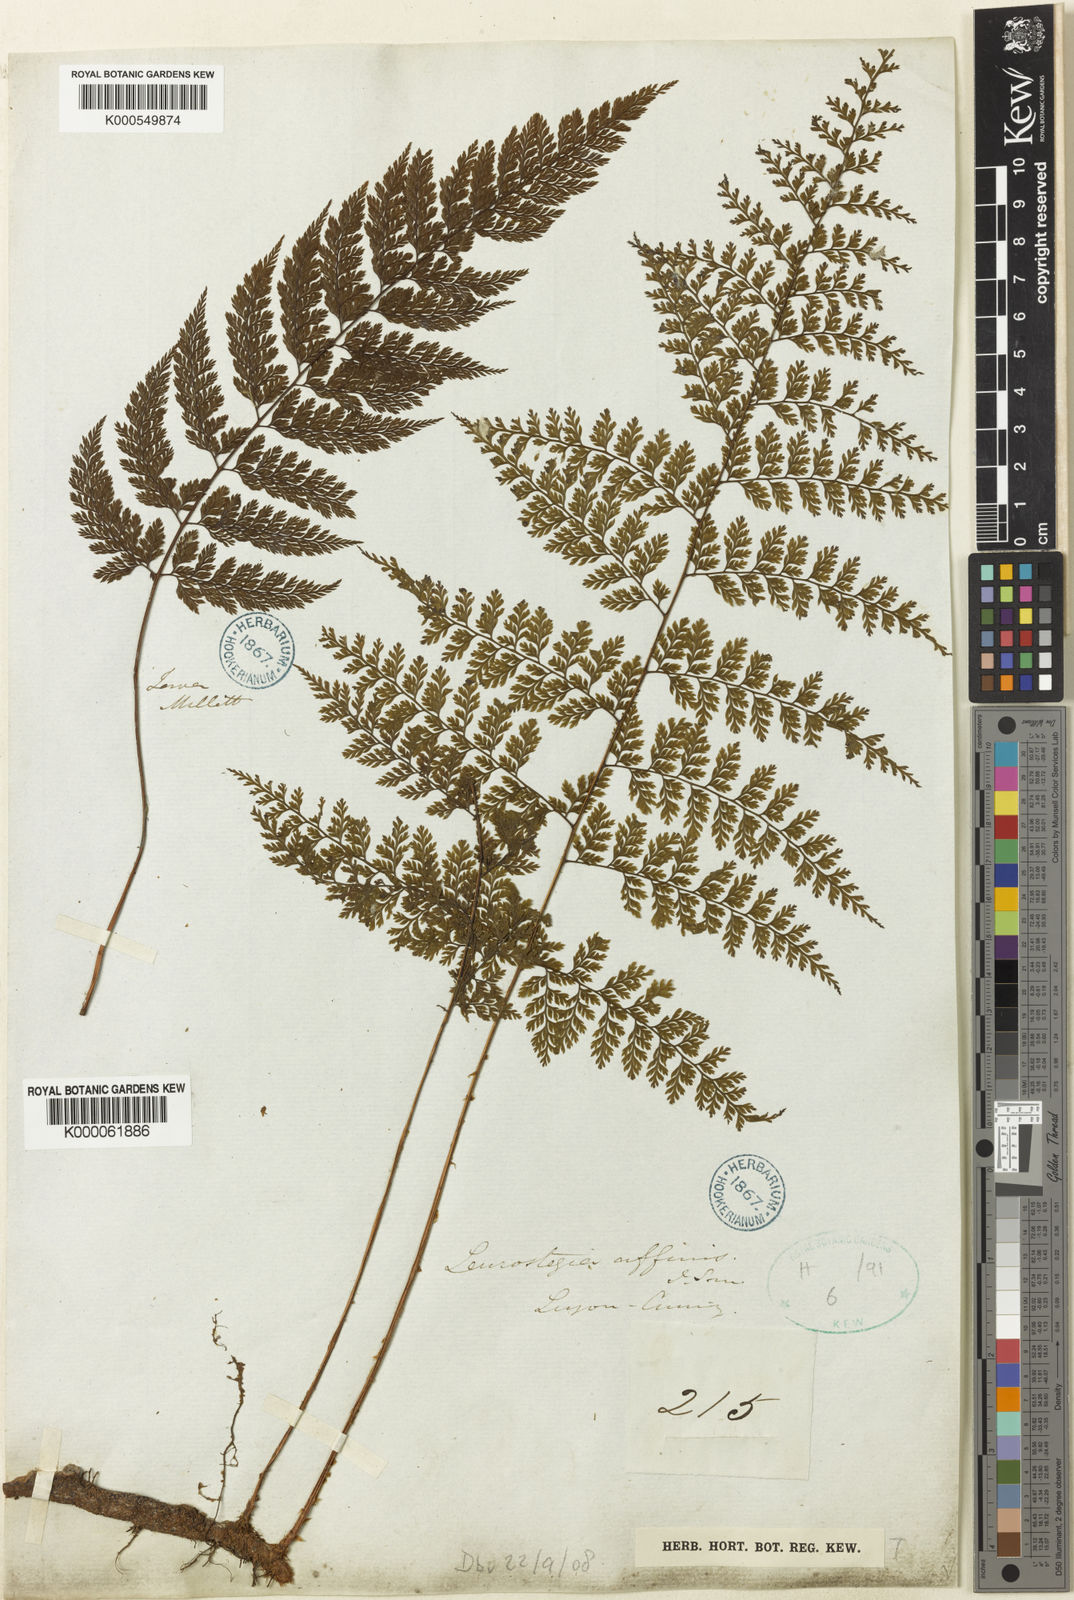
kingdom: Plantae
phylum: Tracheophyta
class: Polypodiopsida
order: Polypodiales
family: Davalliaceae
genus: Davallodes
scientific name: Davallodes hymenophylloides
